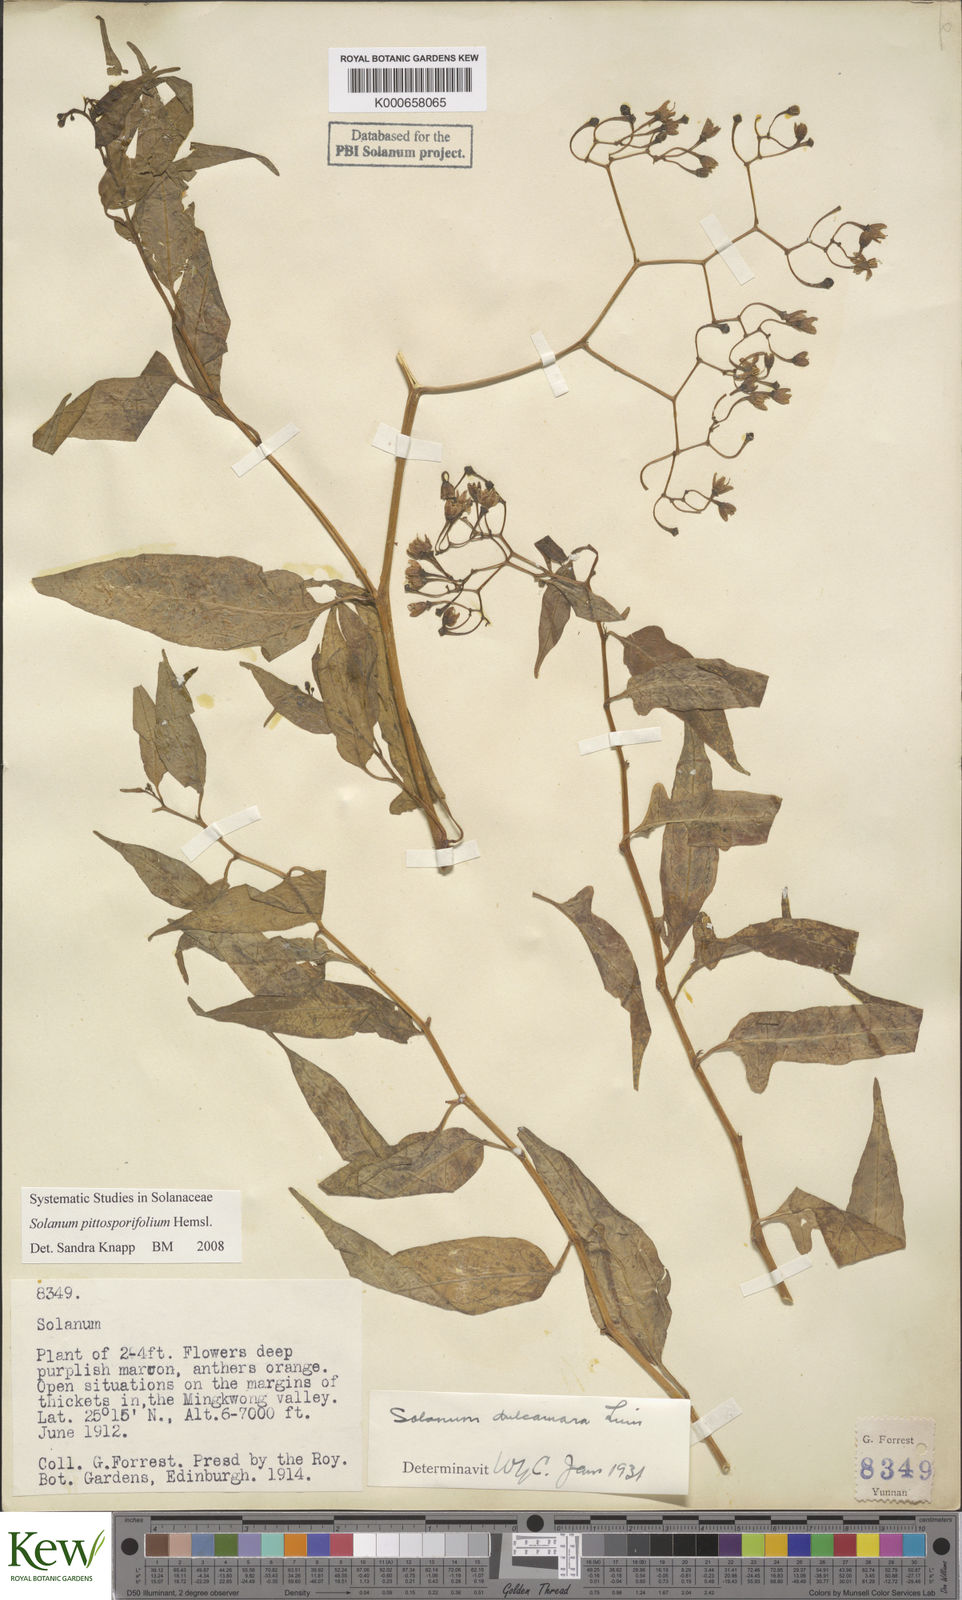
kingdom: Plantae
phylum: Tracheophyta
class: Magnoliopsida
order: Solanales
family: Solanaceae
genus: Solanum
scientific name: Solanum pittosporifolium
